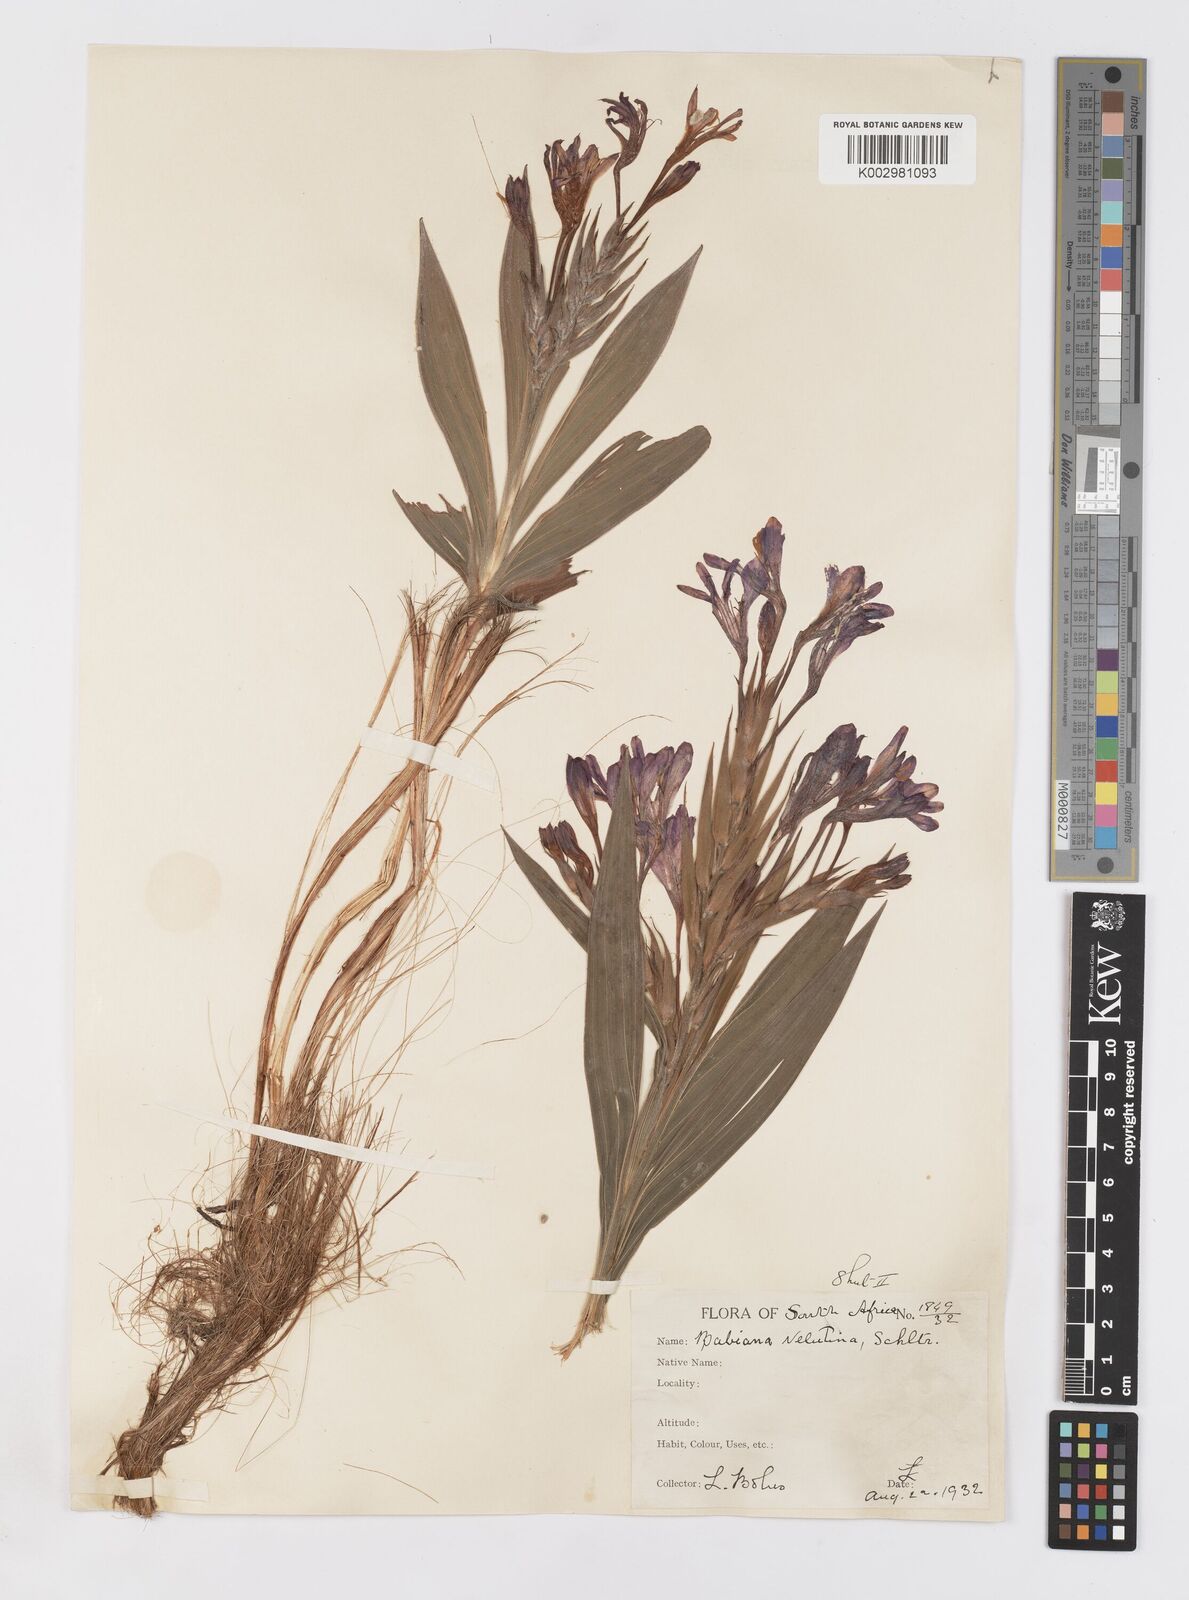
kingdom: Plantae
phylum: Tracheophyta
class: Liliopsida
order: Asparagales
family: Iridaceae
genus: Babiana
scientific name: Babiana ecklonii
